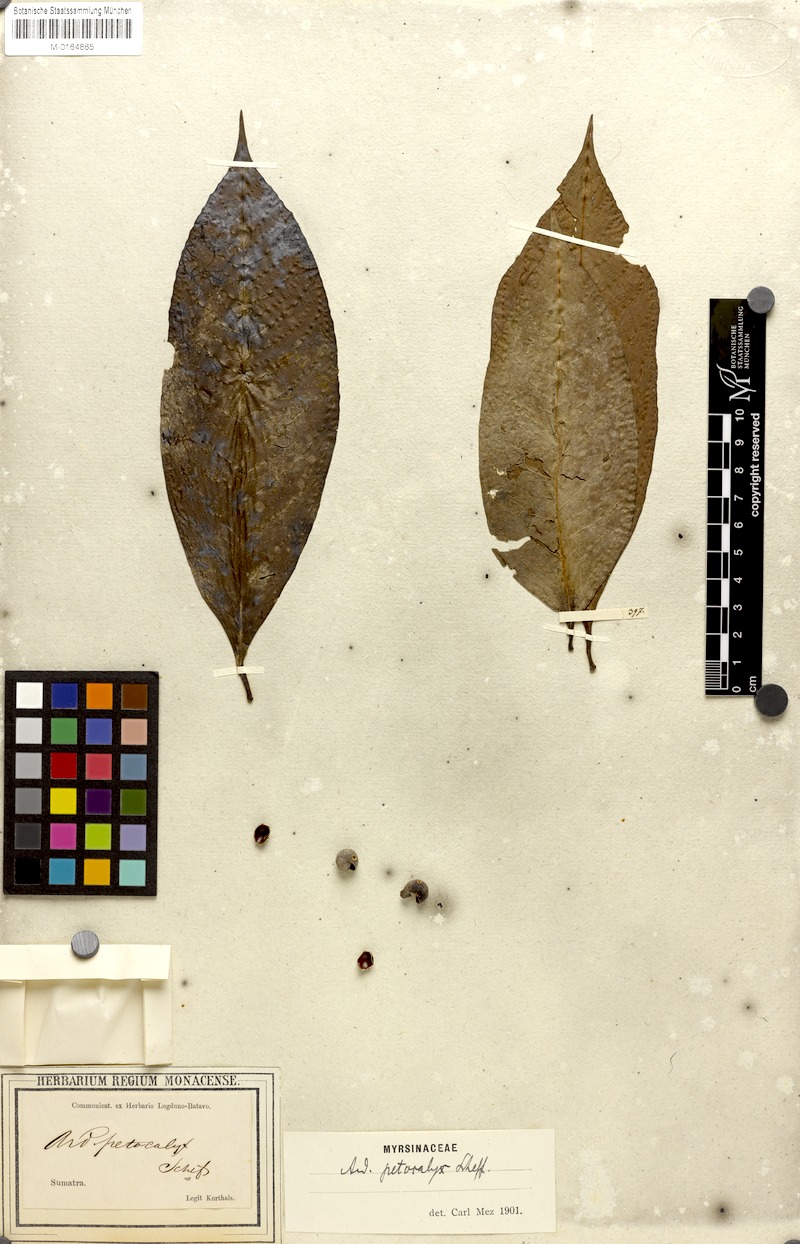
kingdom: Plantae
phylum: Tracheophyta
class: Magnoliopsida
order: Ericales
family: Primulaceae
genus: Ardisia
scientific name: Ardisia petocalyx
